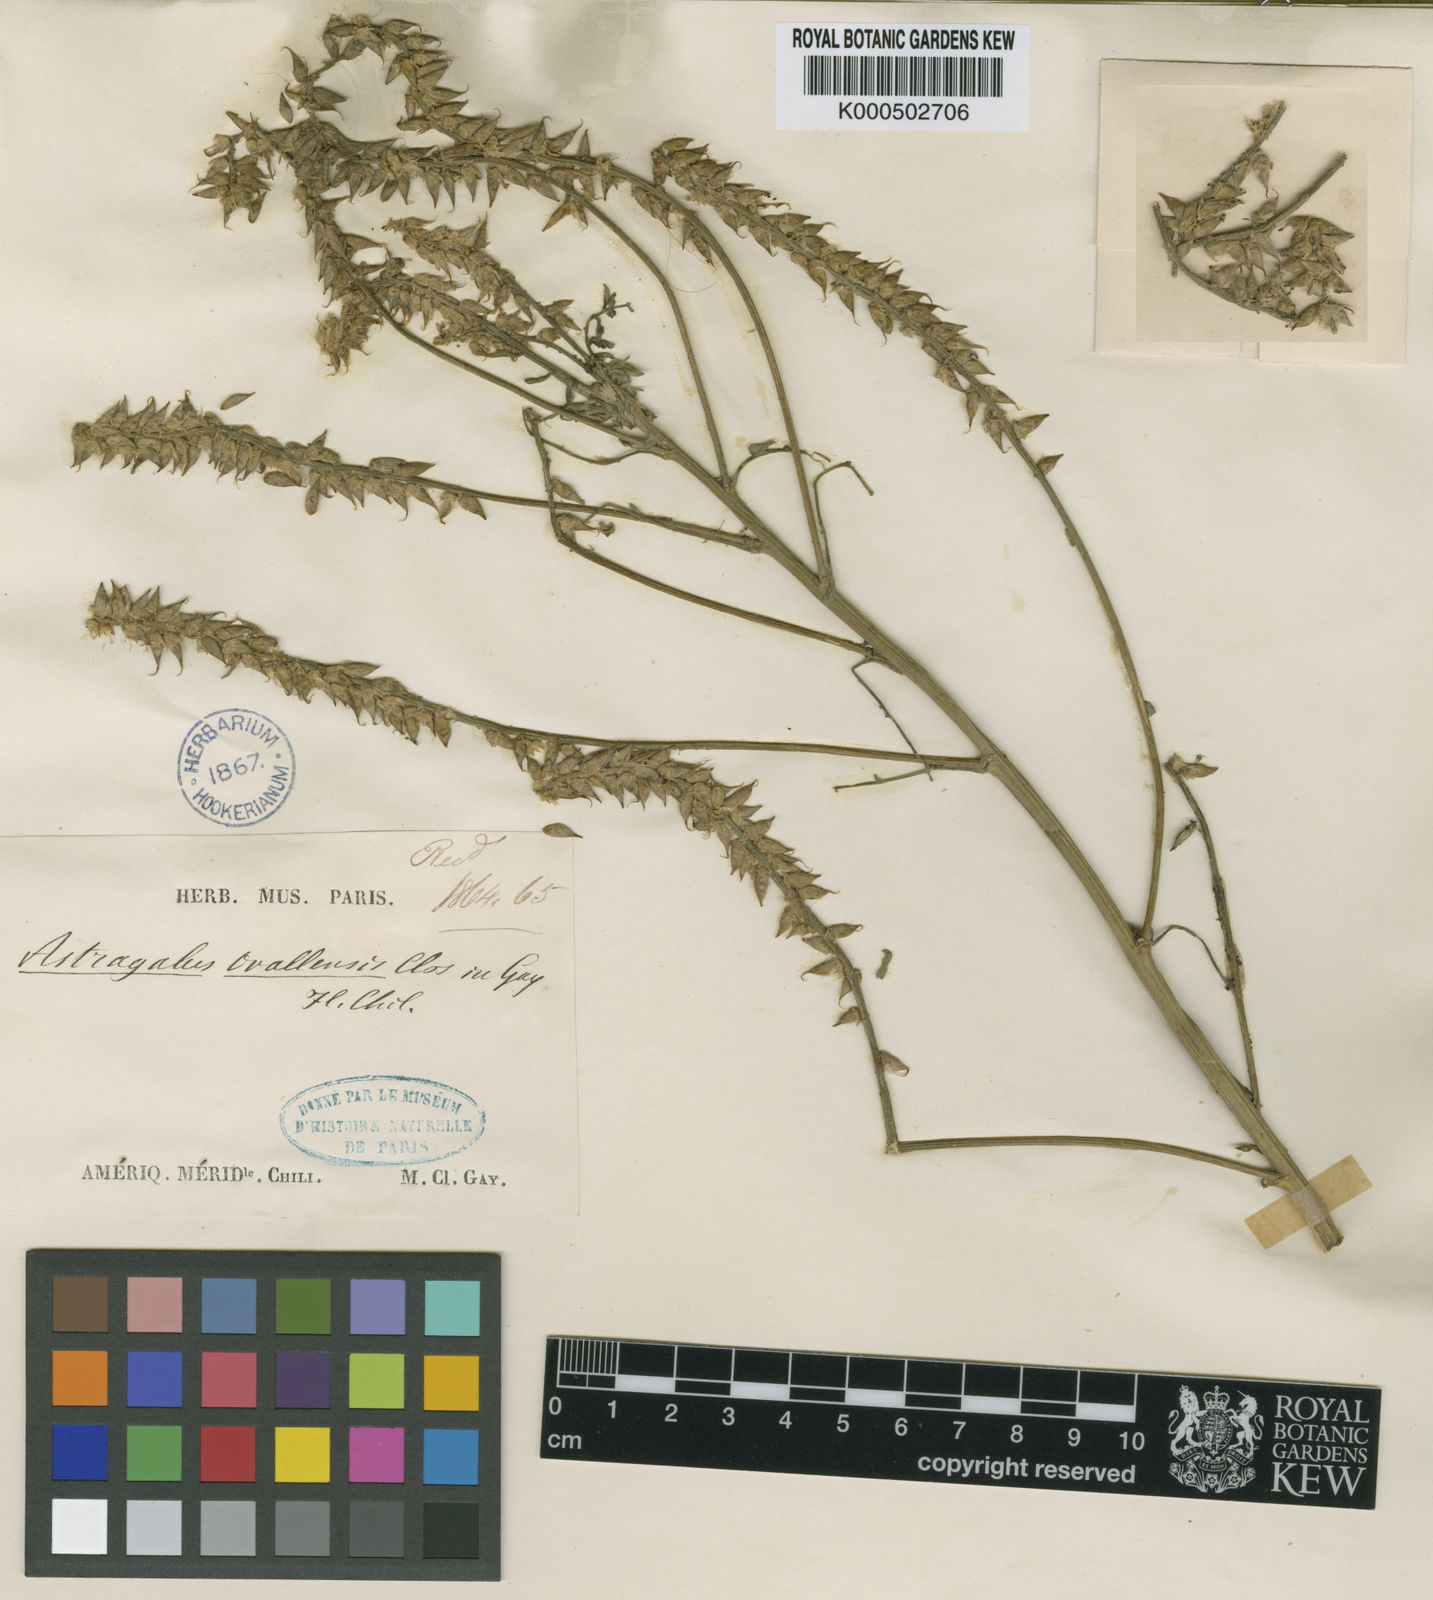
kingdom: Plantae
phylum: Tracheophyta
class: Magnoliopsida
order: Fabales
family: Fabaceae
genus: Astragalus
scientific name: Astragalus chamissonis
